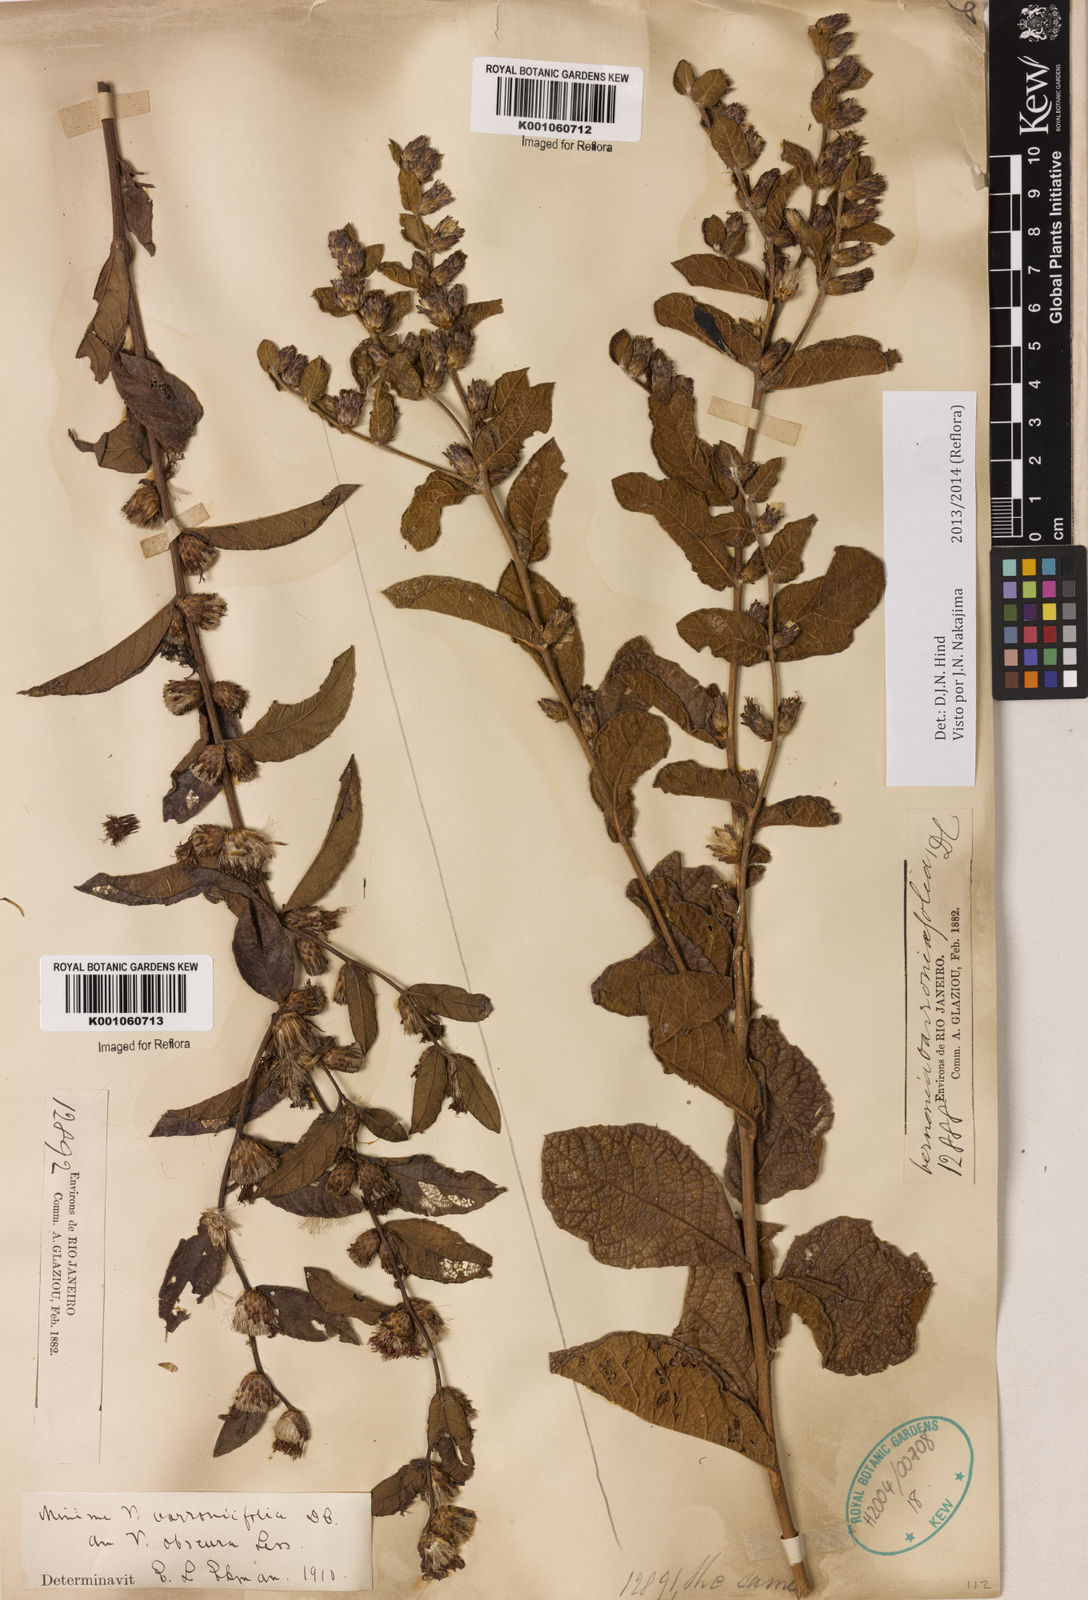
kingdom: Plantae
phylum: Tracheophyta
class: Magnoliopsida
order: Asterales
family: Asteraceae
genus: Lessingianthus
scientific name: Lessingianthus varroniifolius
